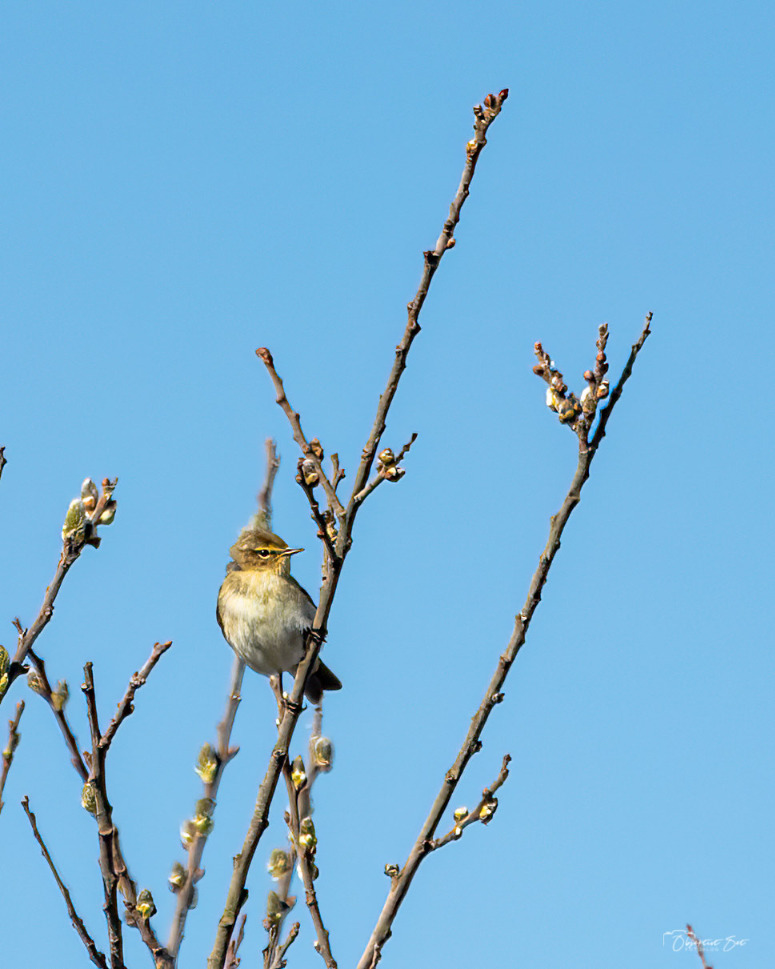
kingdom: Animalia
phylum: Chordata
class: Aves
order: Passeriformes
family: Phylloscopidae
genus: Phylloscopus
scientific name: Phylloscopus collybita
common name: Gransanger
